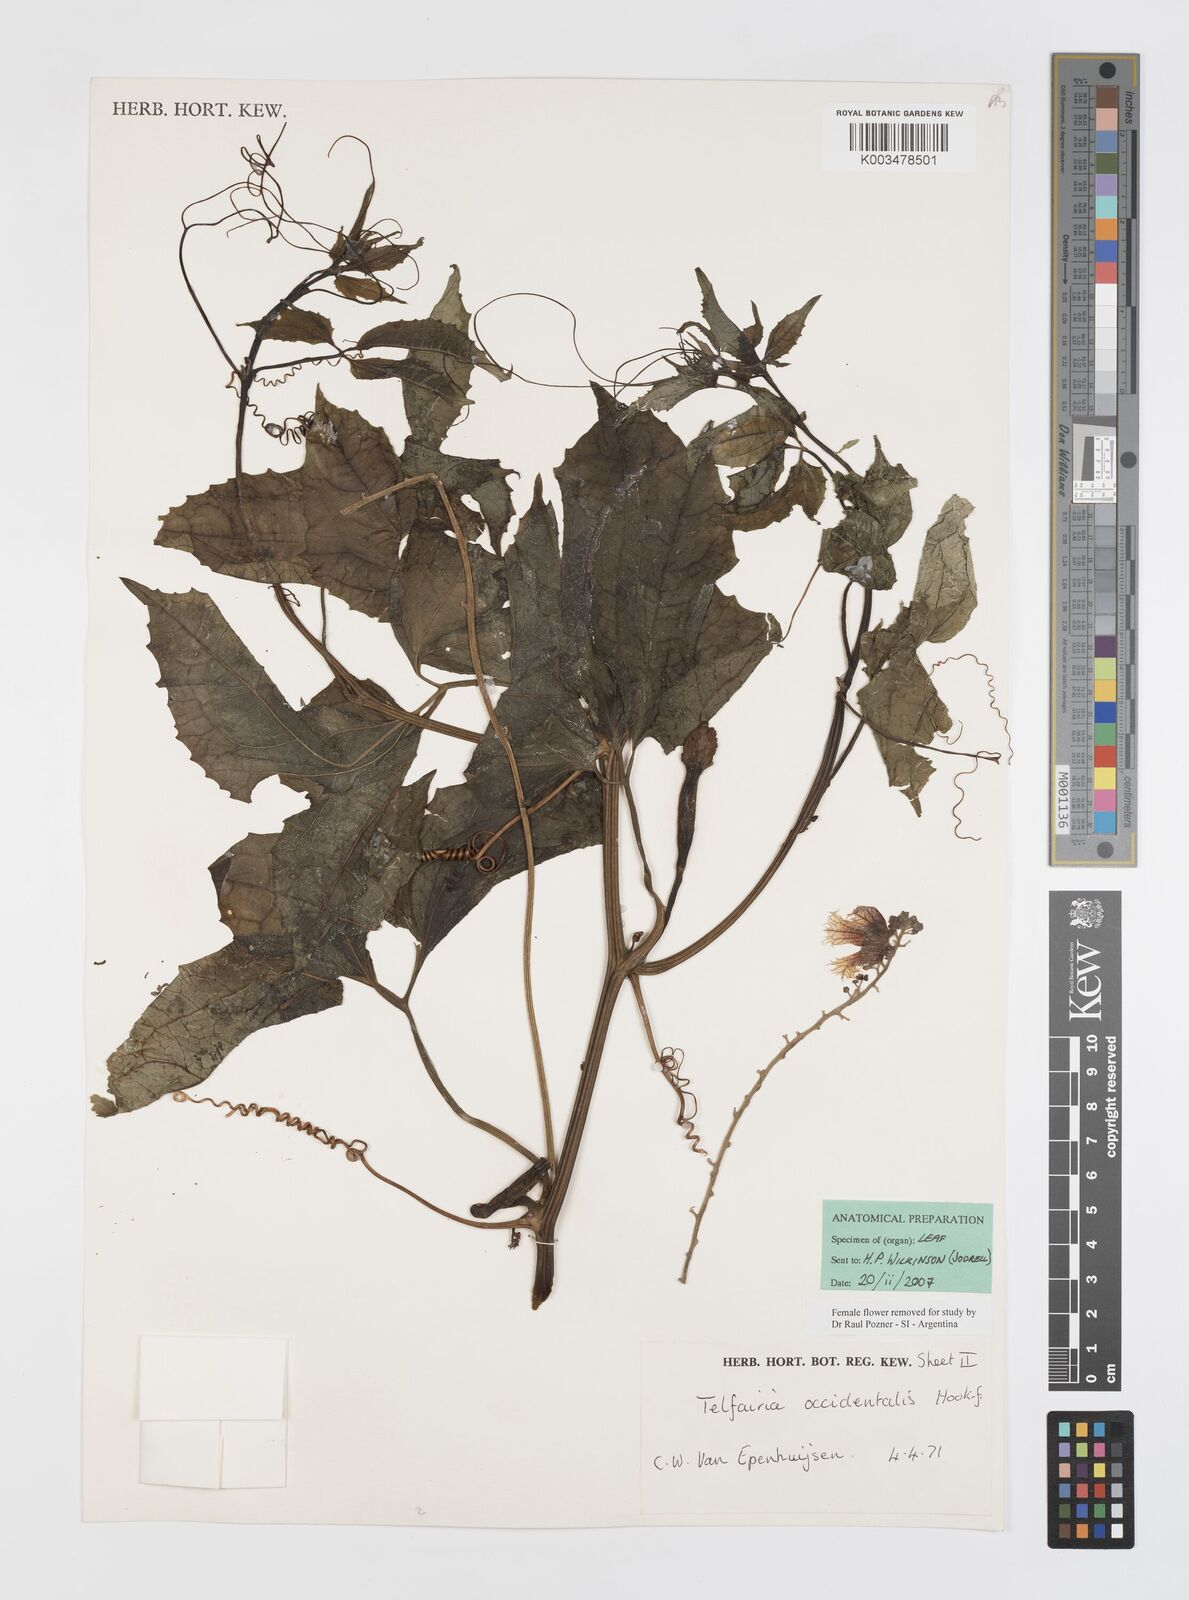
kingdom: Plantae
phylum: Tracheophyta
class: Magnoliopsida
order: Cucurbitales
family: Cucurbitaceae
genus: Telfairia
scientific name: Telfairia occidentalis
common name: Oysternut
